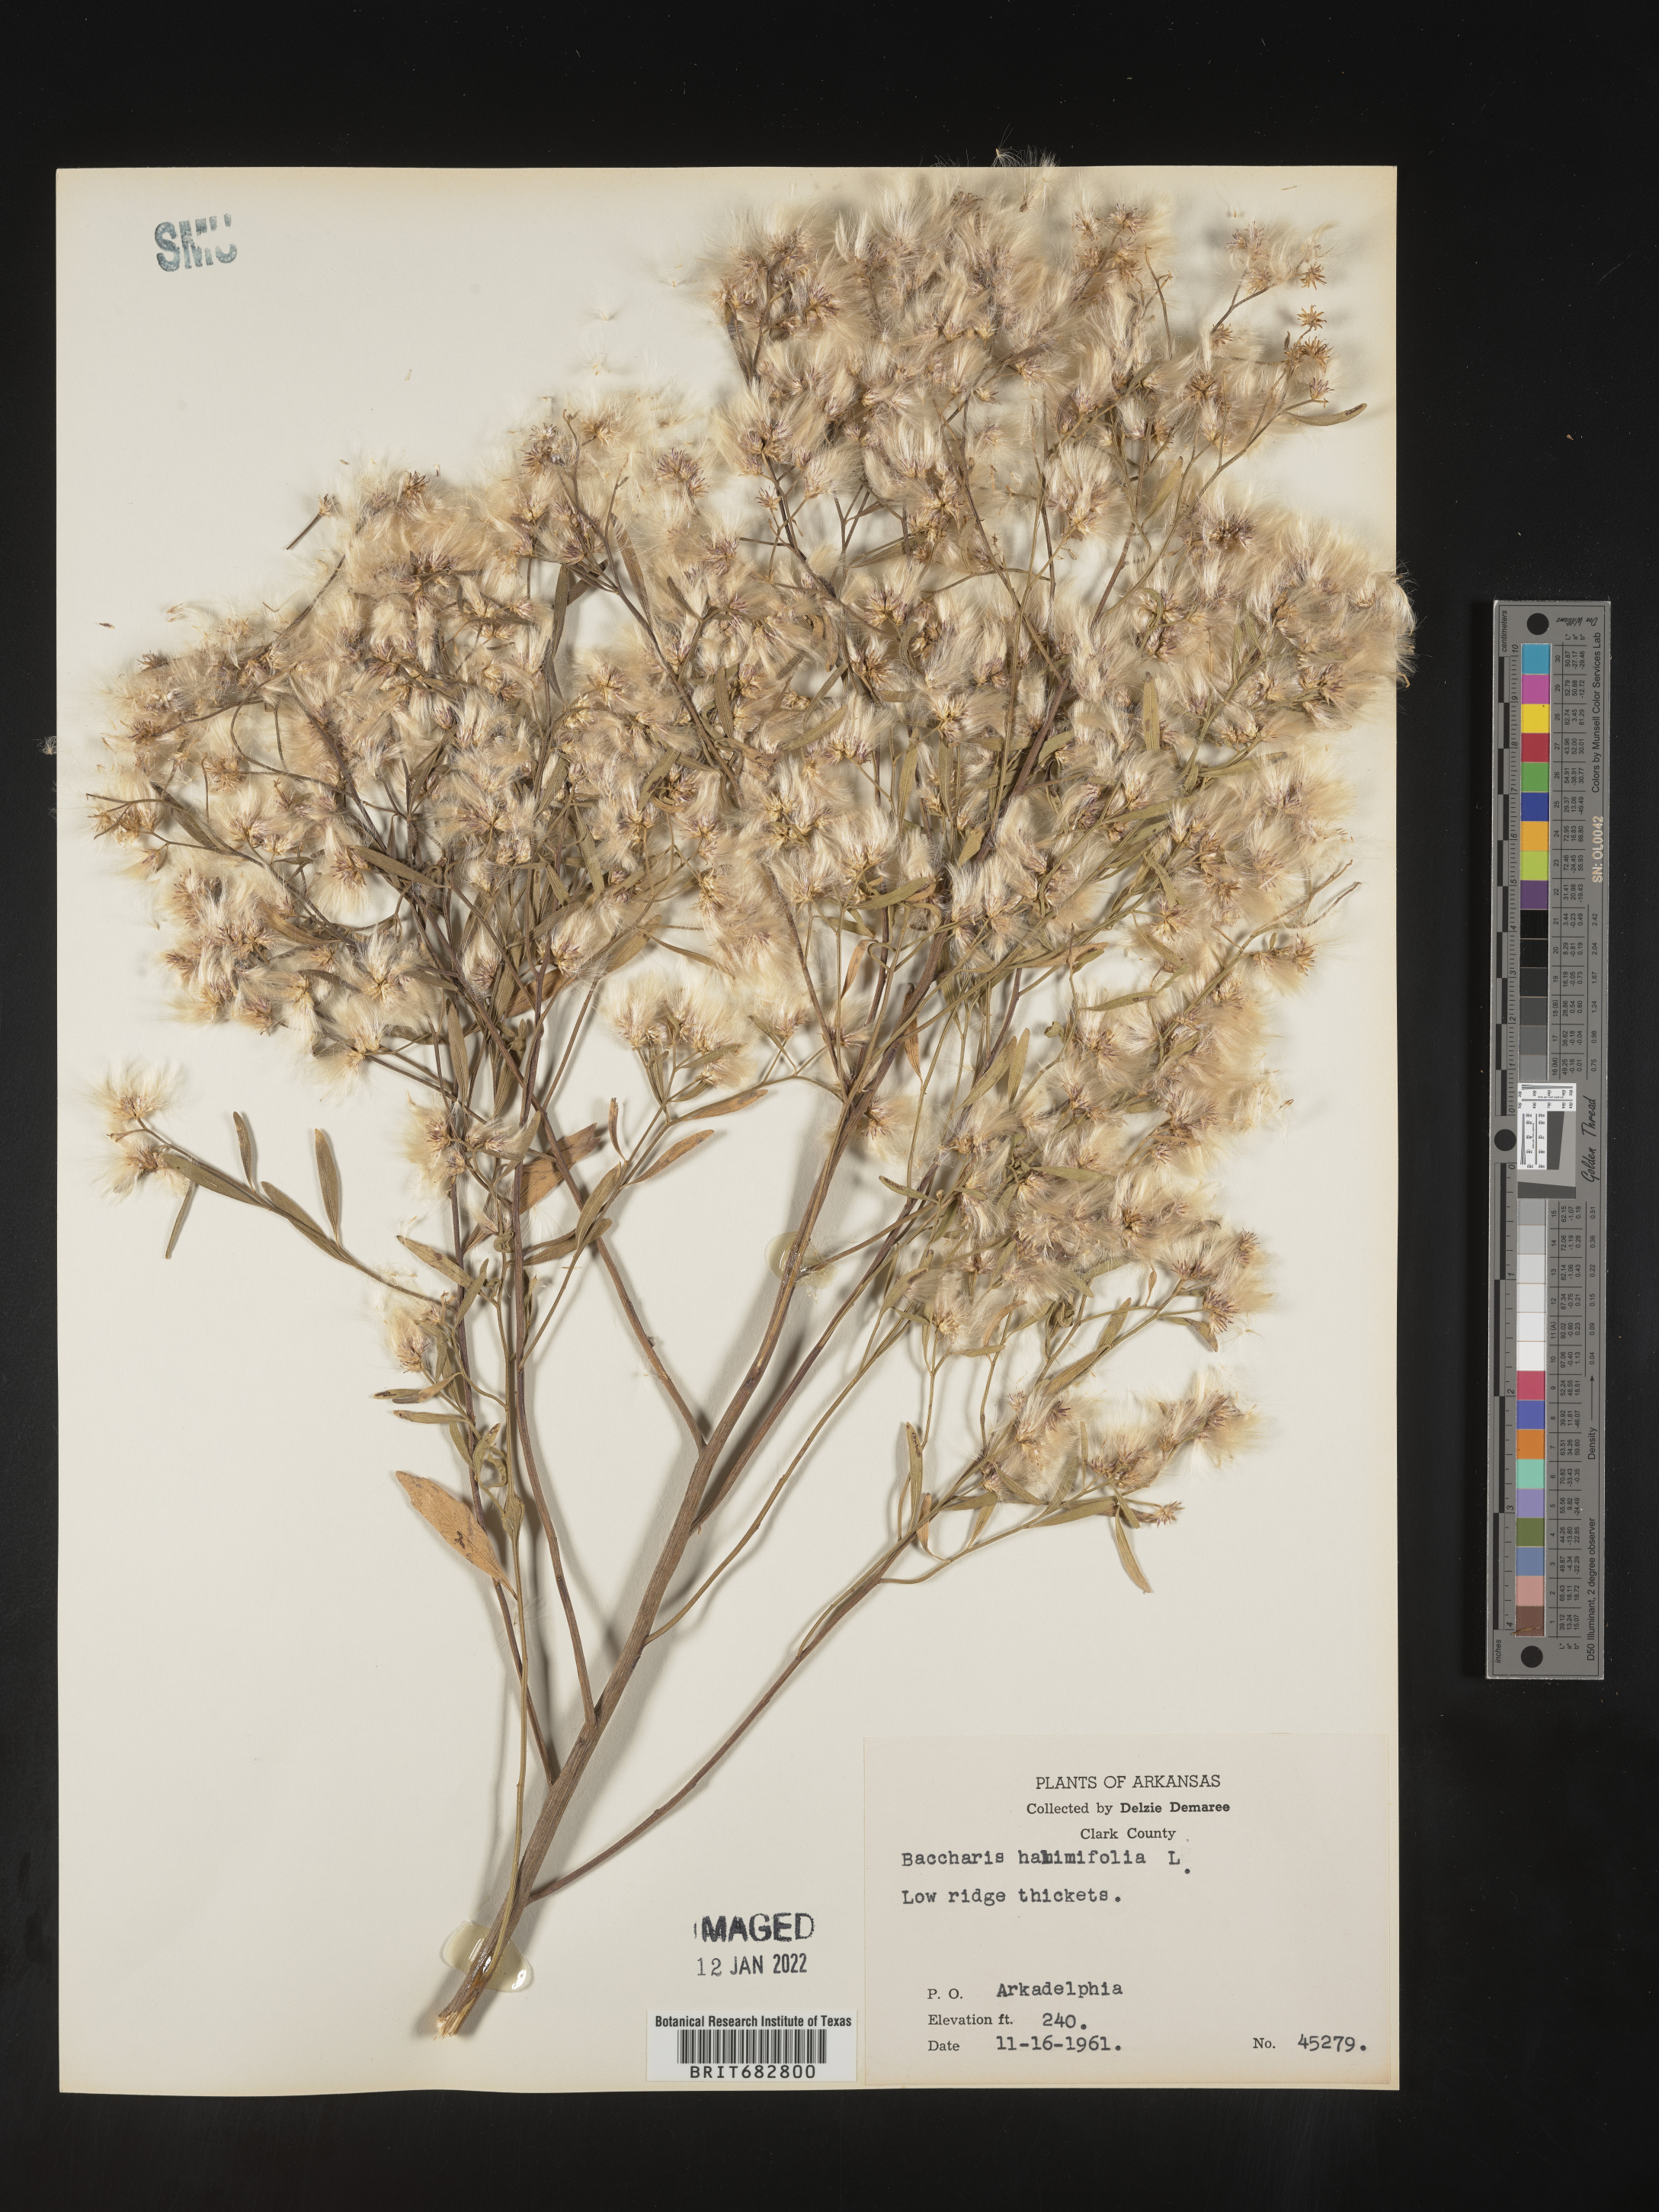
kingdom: Plantae
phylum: Tracheophyta
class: Magnoliopsida
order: Asterales
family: Asteraceae
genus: Nidorella
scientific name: Nidorella ivifolia
